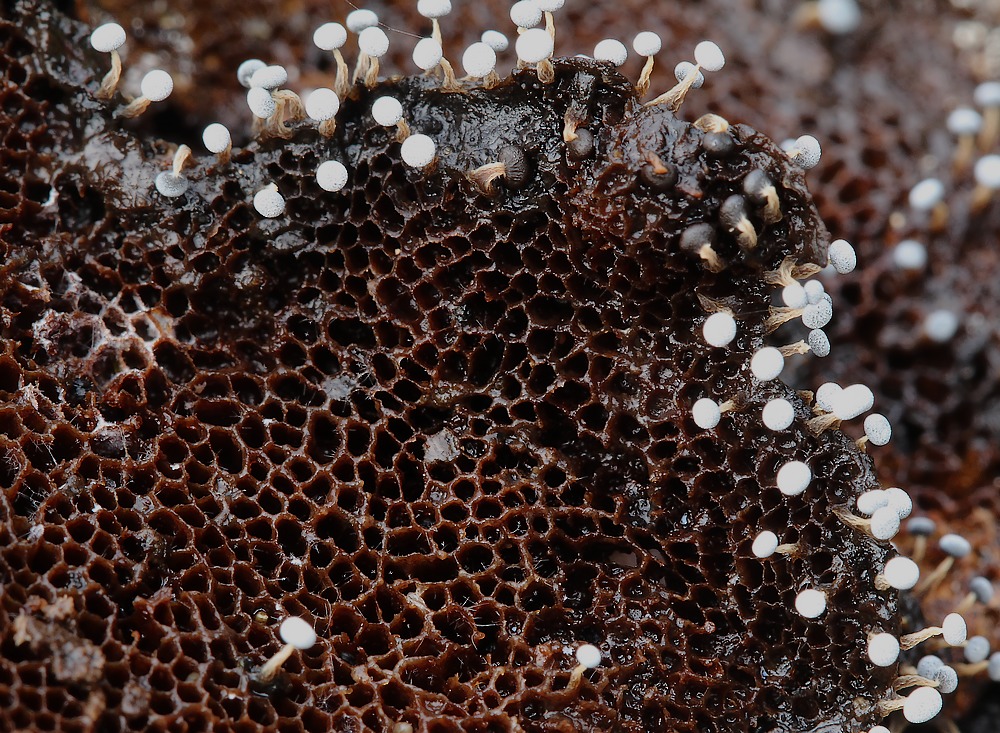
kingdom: Protozoa
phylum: Mycetozoa
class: Myxomycetes
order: Physarales
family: Physaraceae
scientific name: Physaraceae
